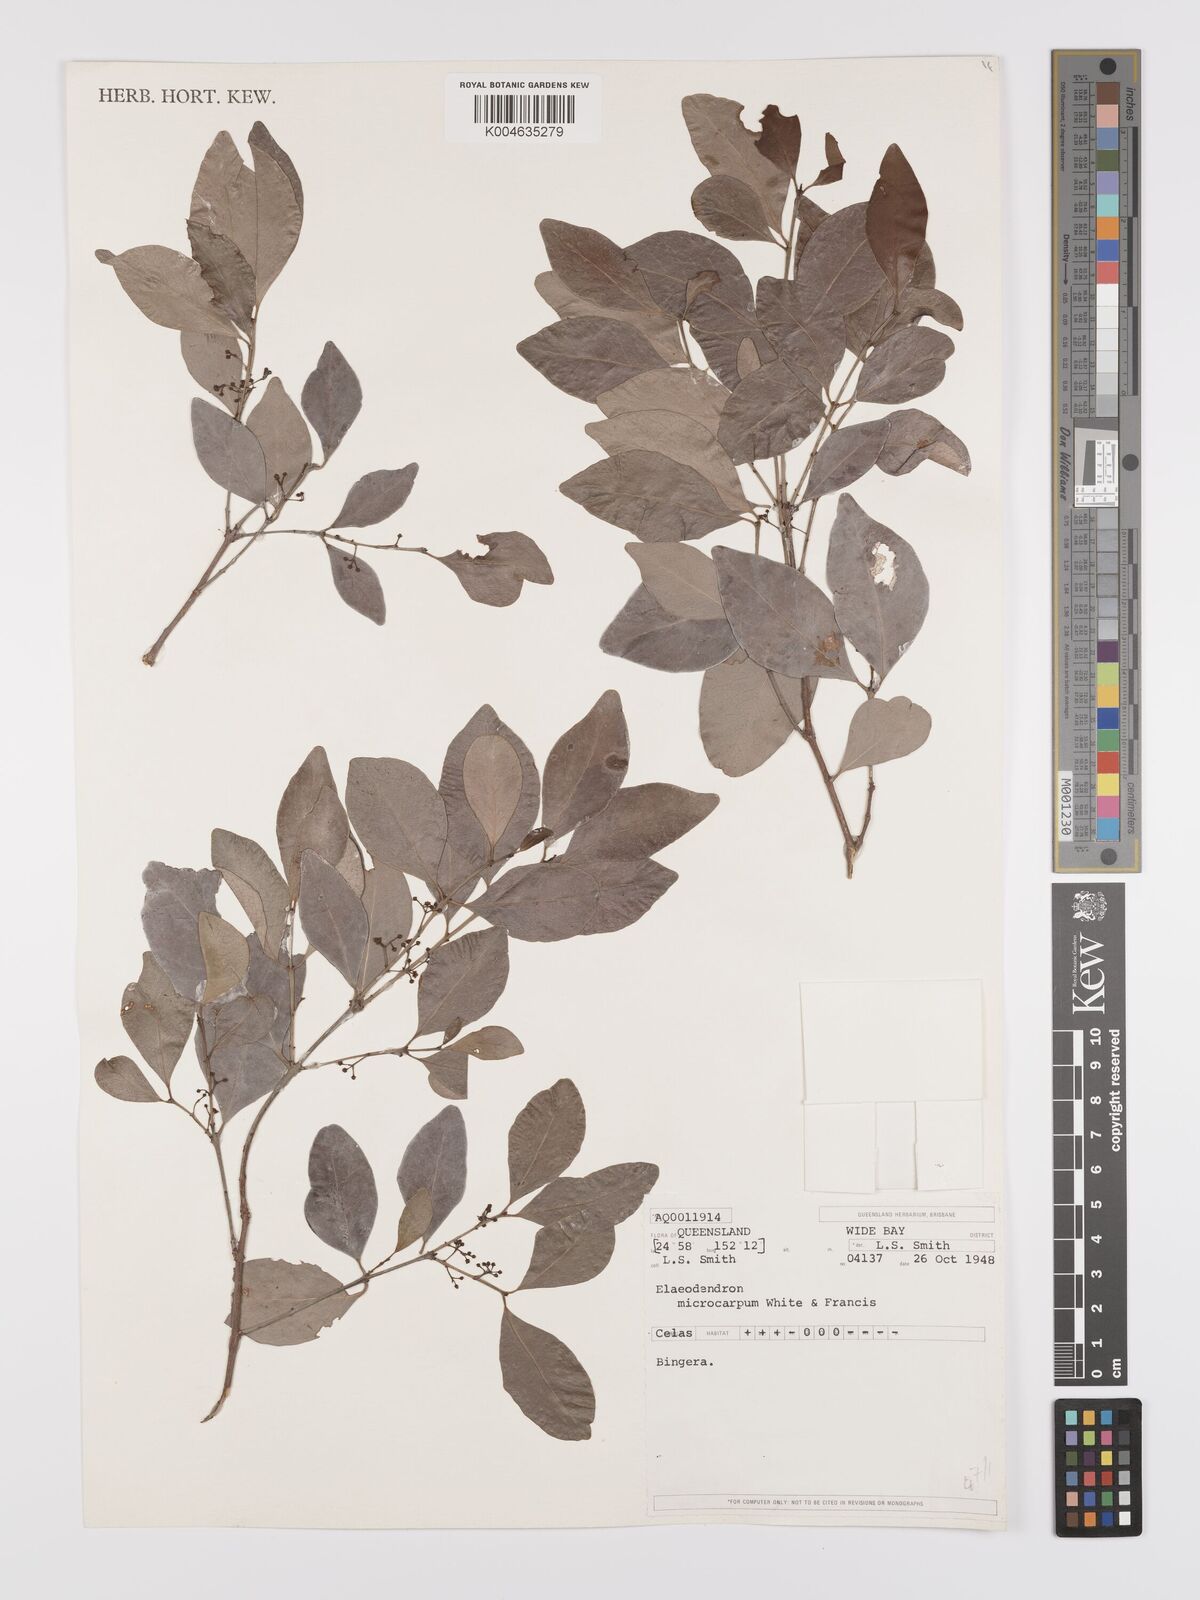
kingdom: Plantae
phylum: Tracheophyta
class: Magnoliopsida
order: Celastrales
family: Celastraceae
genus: Pleurostylia
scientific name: Pleurostylia opposita
